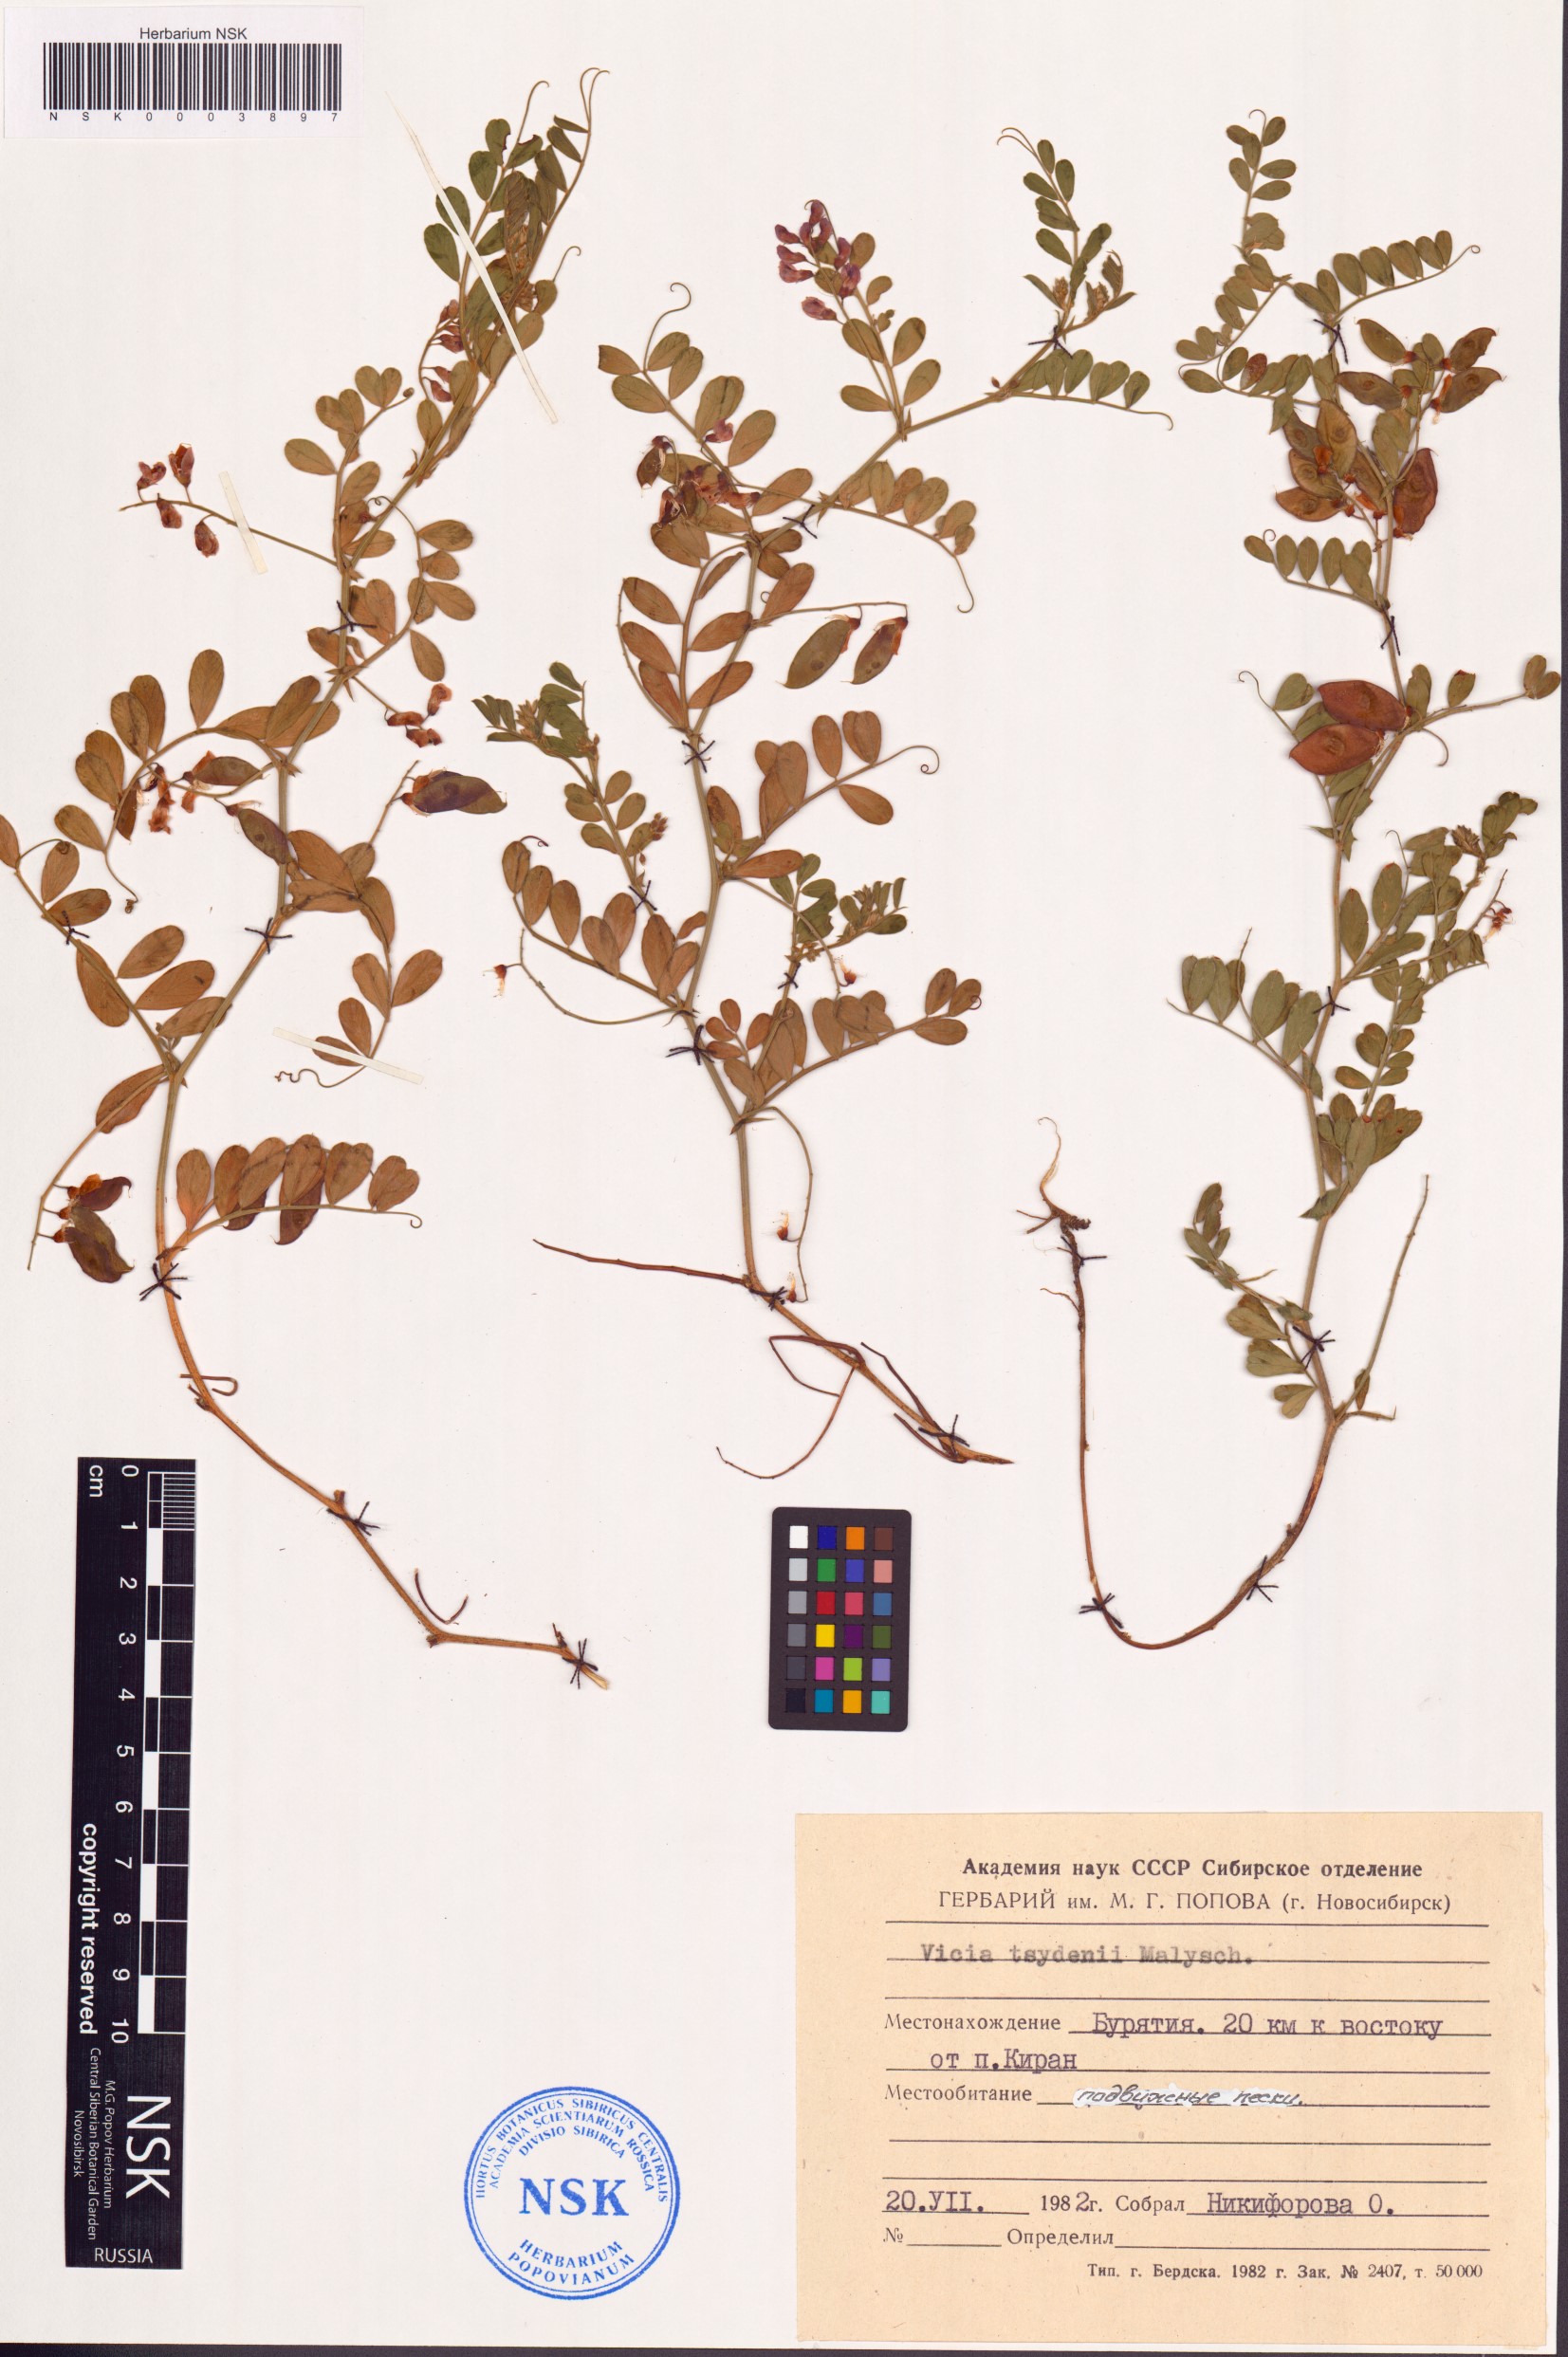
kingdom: Plantae
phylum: Tracheophyta
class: Magnoliopsida
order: Fabales
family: Fabaceae
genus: Vicia
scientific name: Vicia tsydenii
